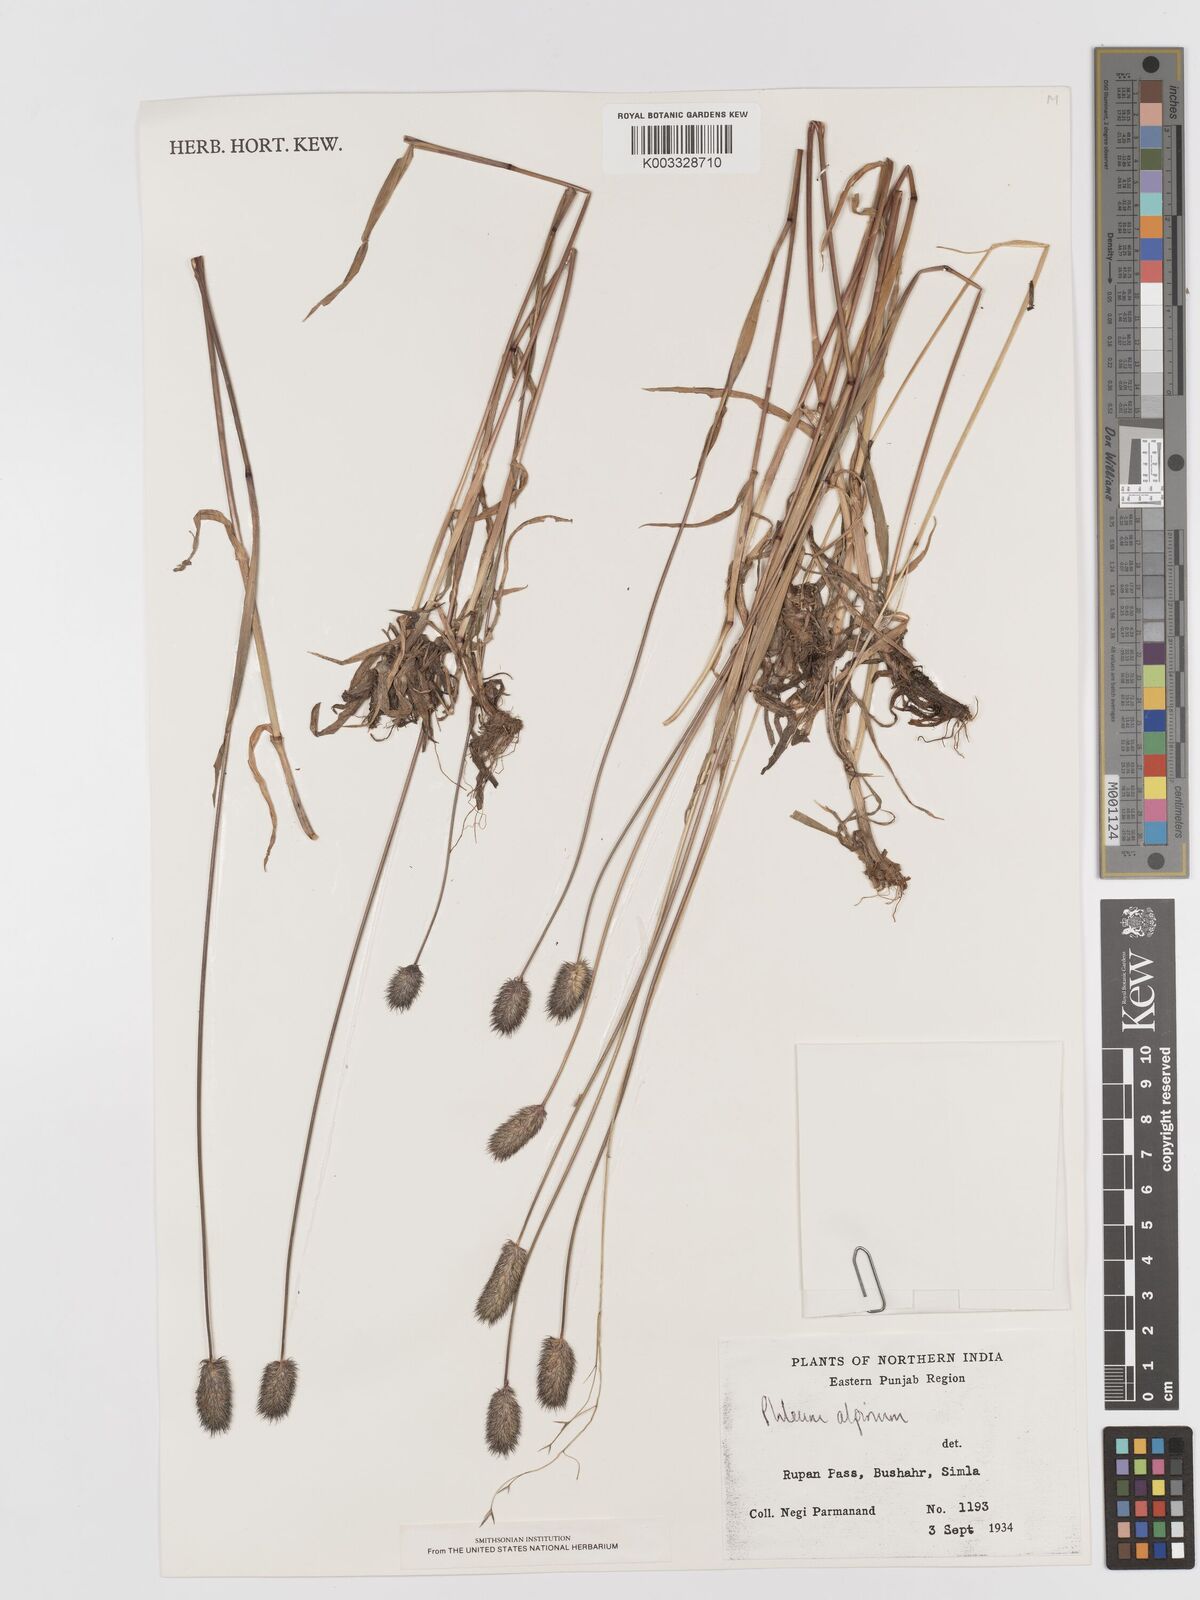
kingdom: Plantae
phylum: Tracheophyta
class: Liliopsida
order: Poales
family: Poaceae
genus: Phleum
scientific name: Phleum alpinum
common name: Alpine cat's-tail
